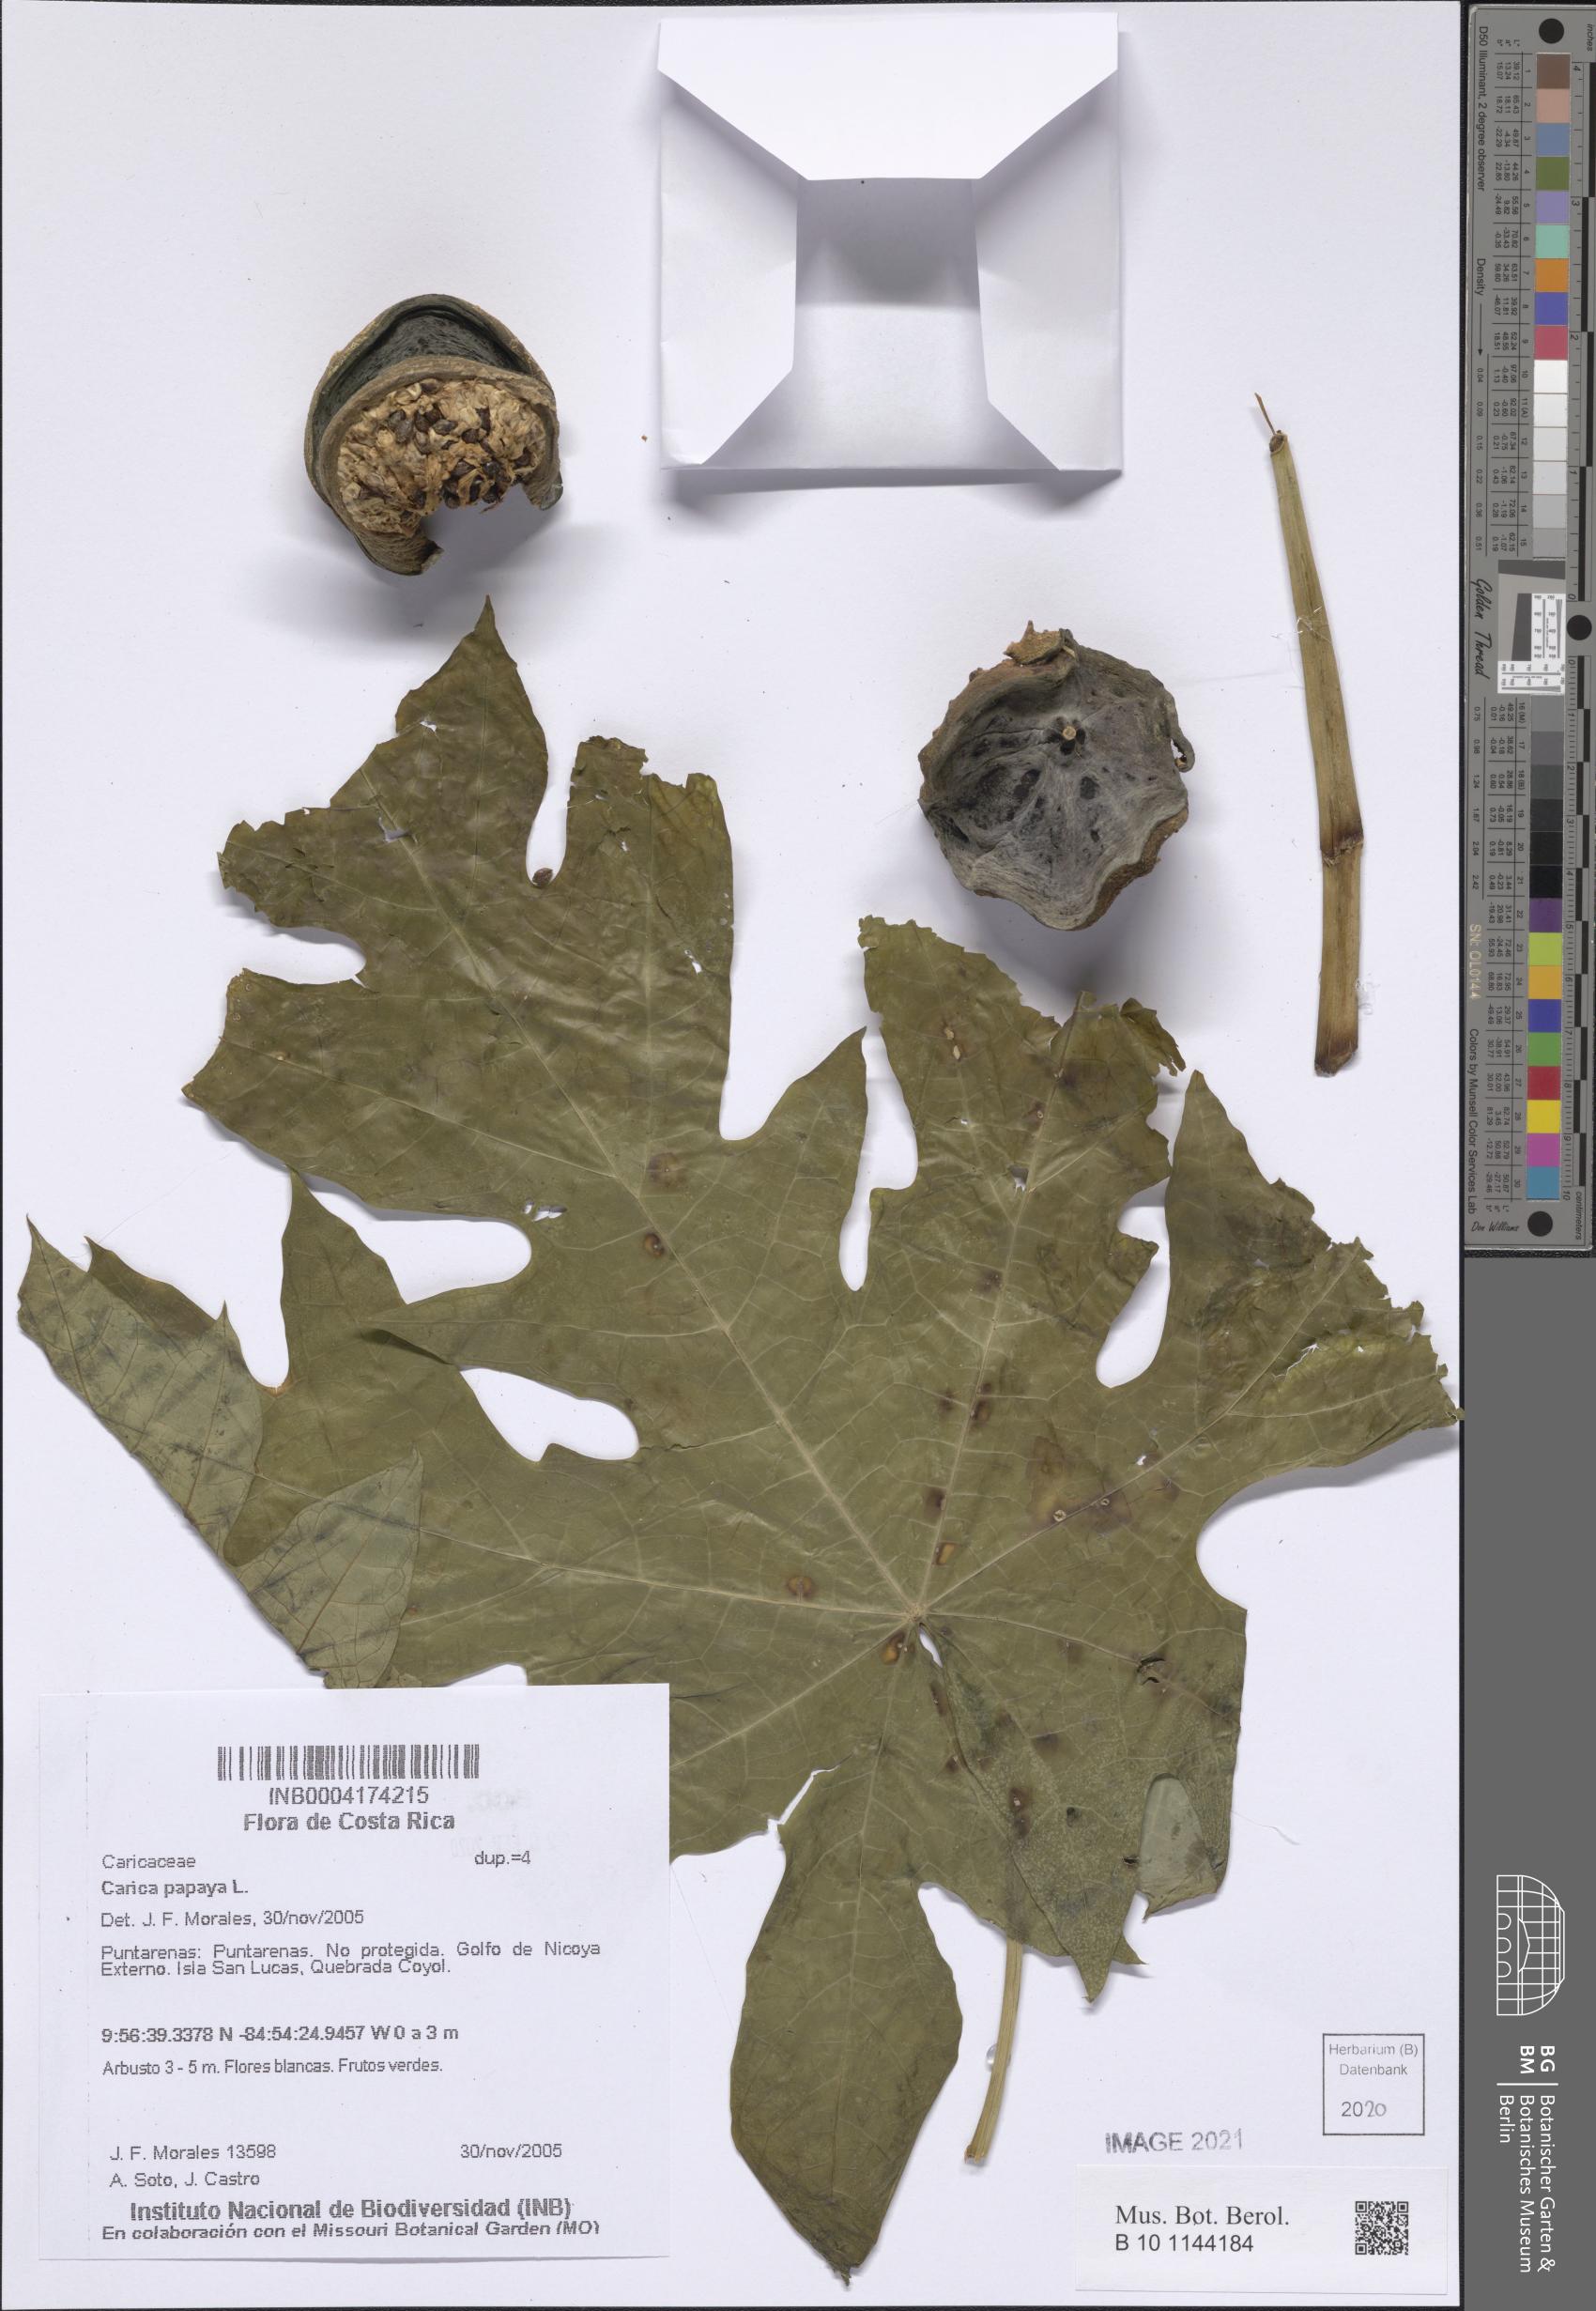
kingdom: Plantae
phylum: Tracheophyta
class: Magnoliopsida
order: Brassicales
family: Caricaceae
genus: Carica
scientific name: Carica papaya
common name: Papaya
